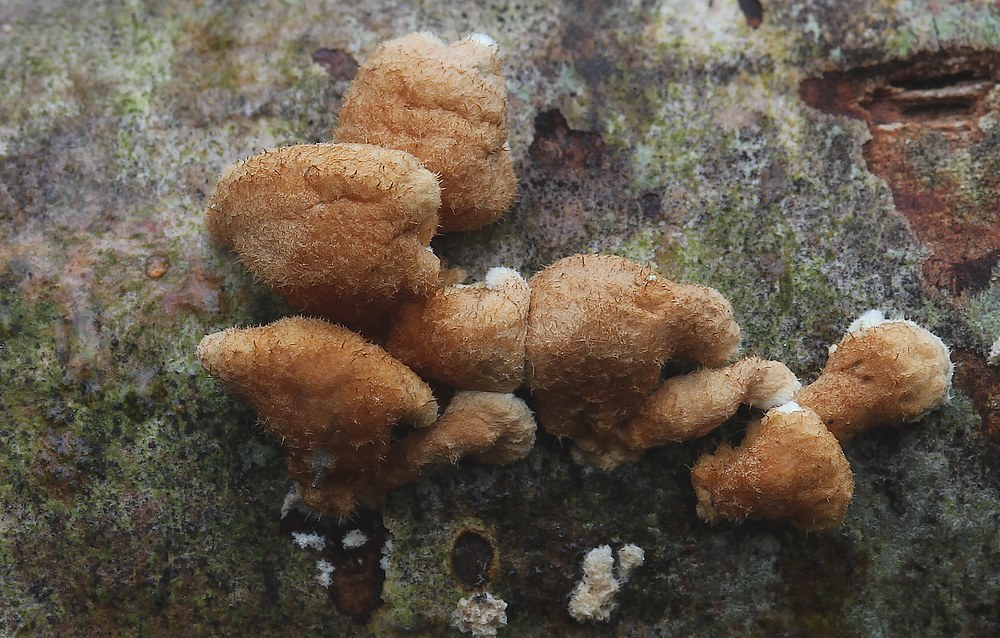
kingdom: Fungi
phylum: Basidiomycota
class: Agaricomycetes
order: Amylocorticiales
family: Amylocorticiaceae
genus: Plicaturopsis
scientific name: Plicaturopsis crispa
